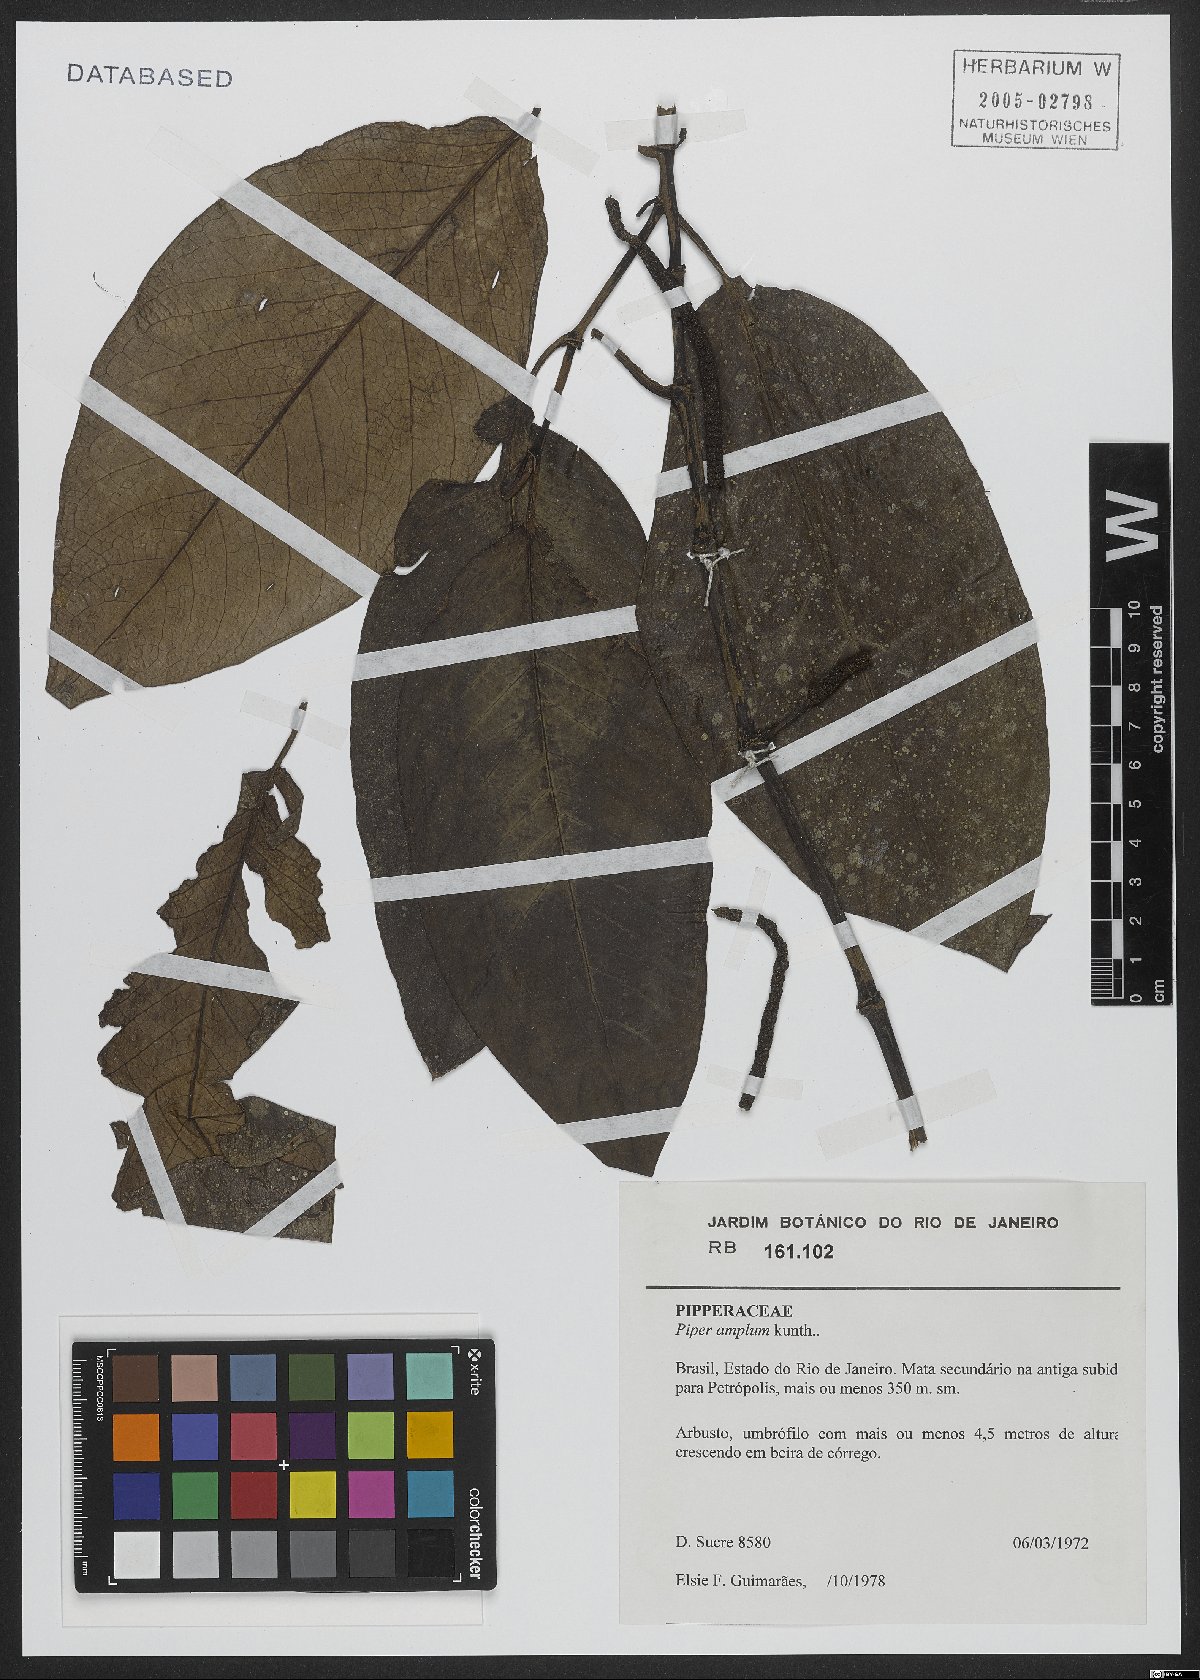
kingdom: Plantae
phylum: Tracheophyta
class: Magnoliopsida
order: Piperales
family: Piperaceae
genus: Piper
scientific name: Piper fluminense
